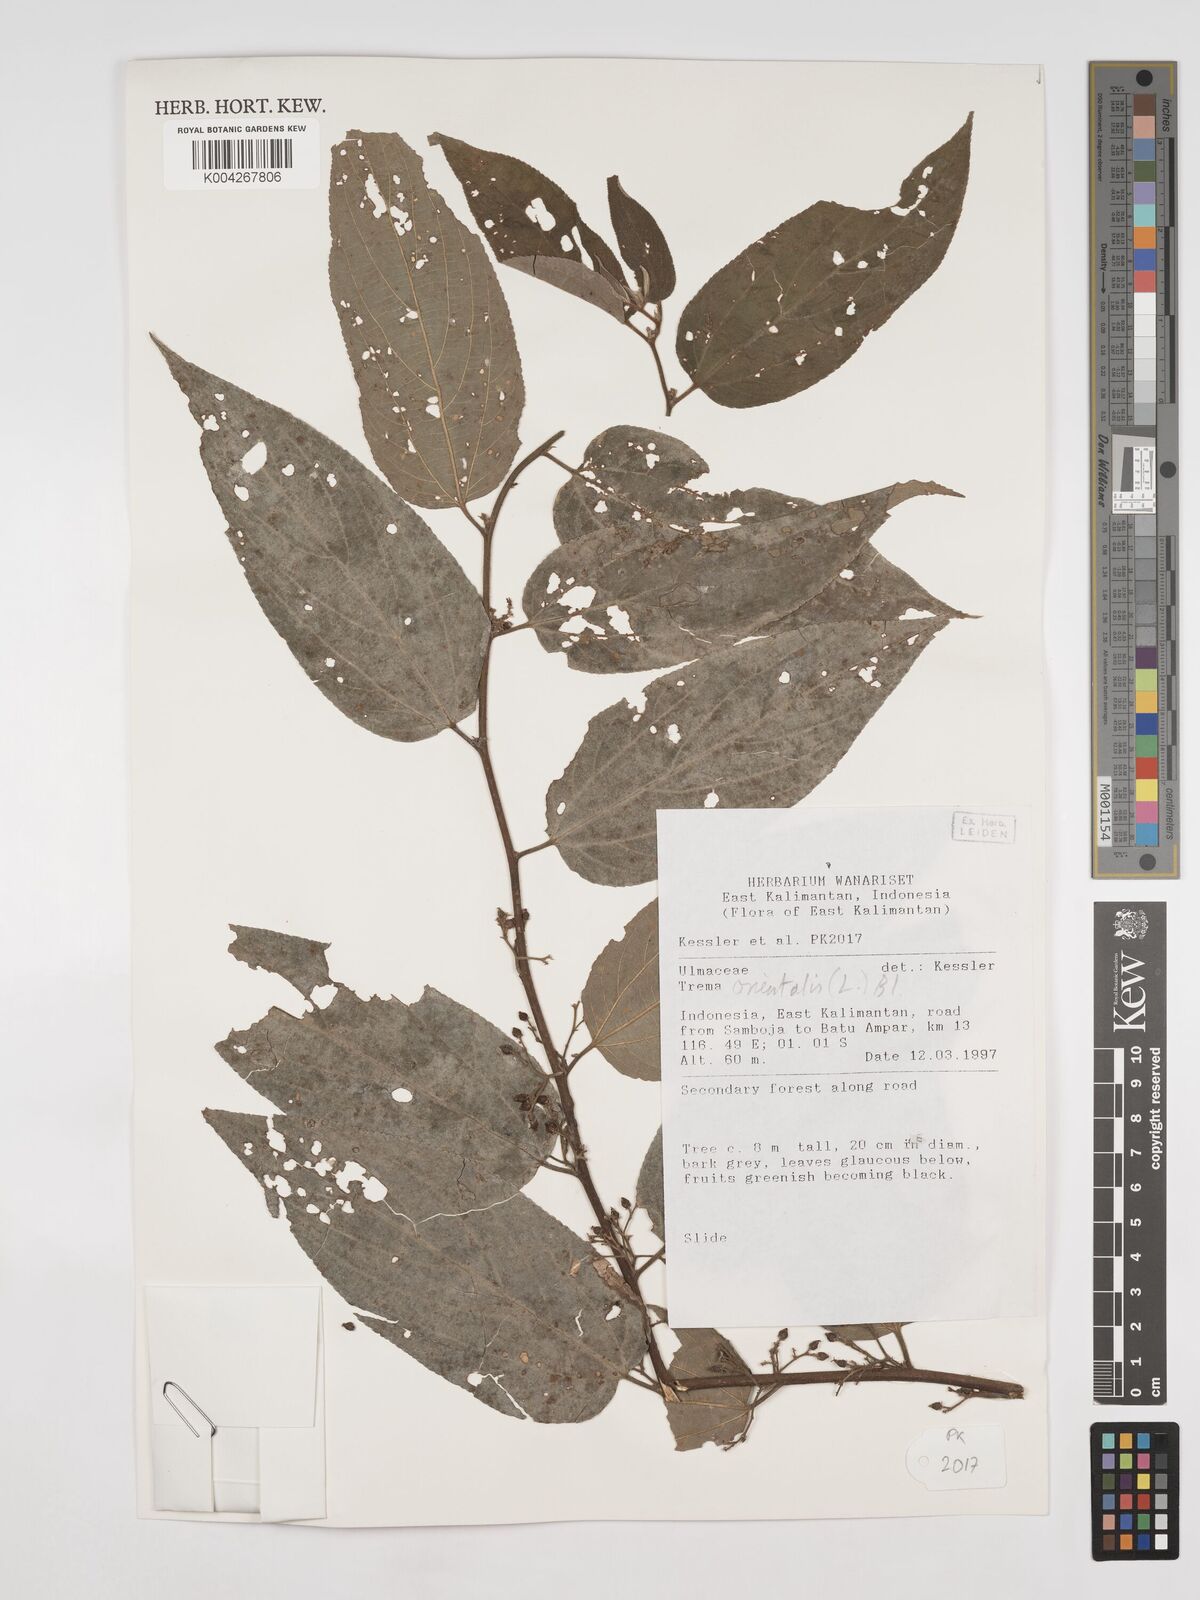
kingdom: Plantae
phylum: Tracheophyta
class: Magnoliopsida
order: Rosales
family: Cannabaceae
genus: Trema
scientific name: Trema orientale
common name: Indian charcoal tree
